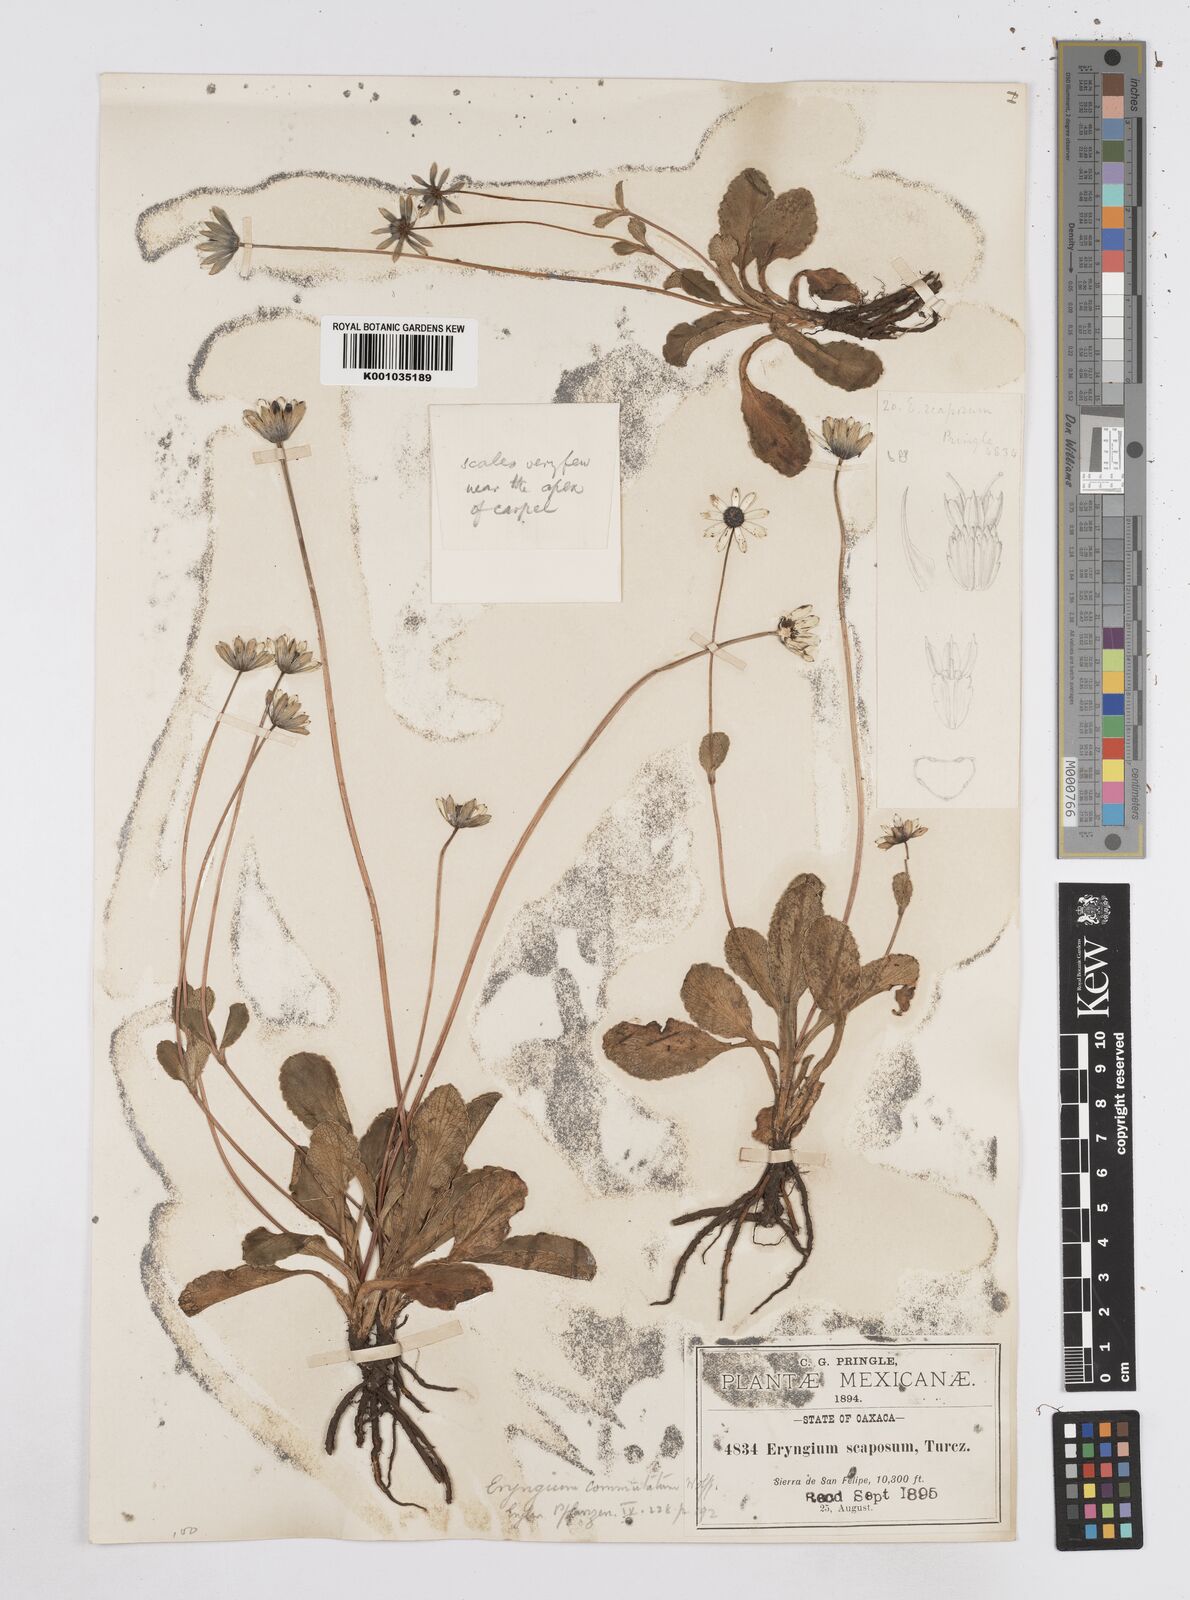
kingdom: Plantae
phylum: Tracheophyta
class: Magnoliopsida
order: Apiales
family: Apiaceae
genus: Eryngium
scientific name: Eryngium scaposum
